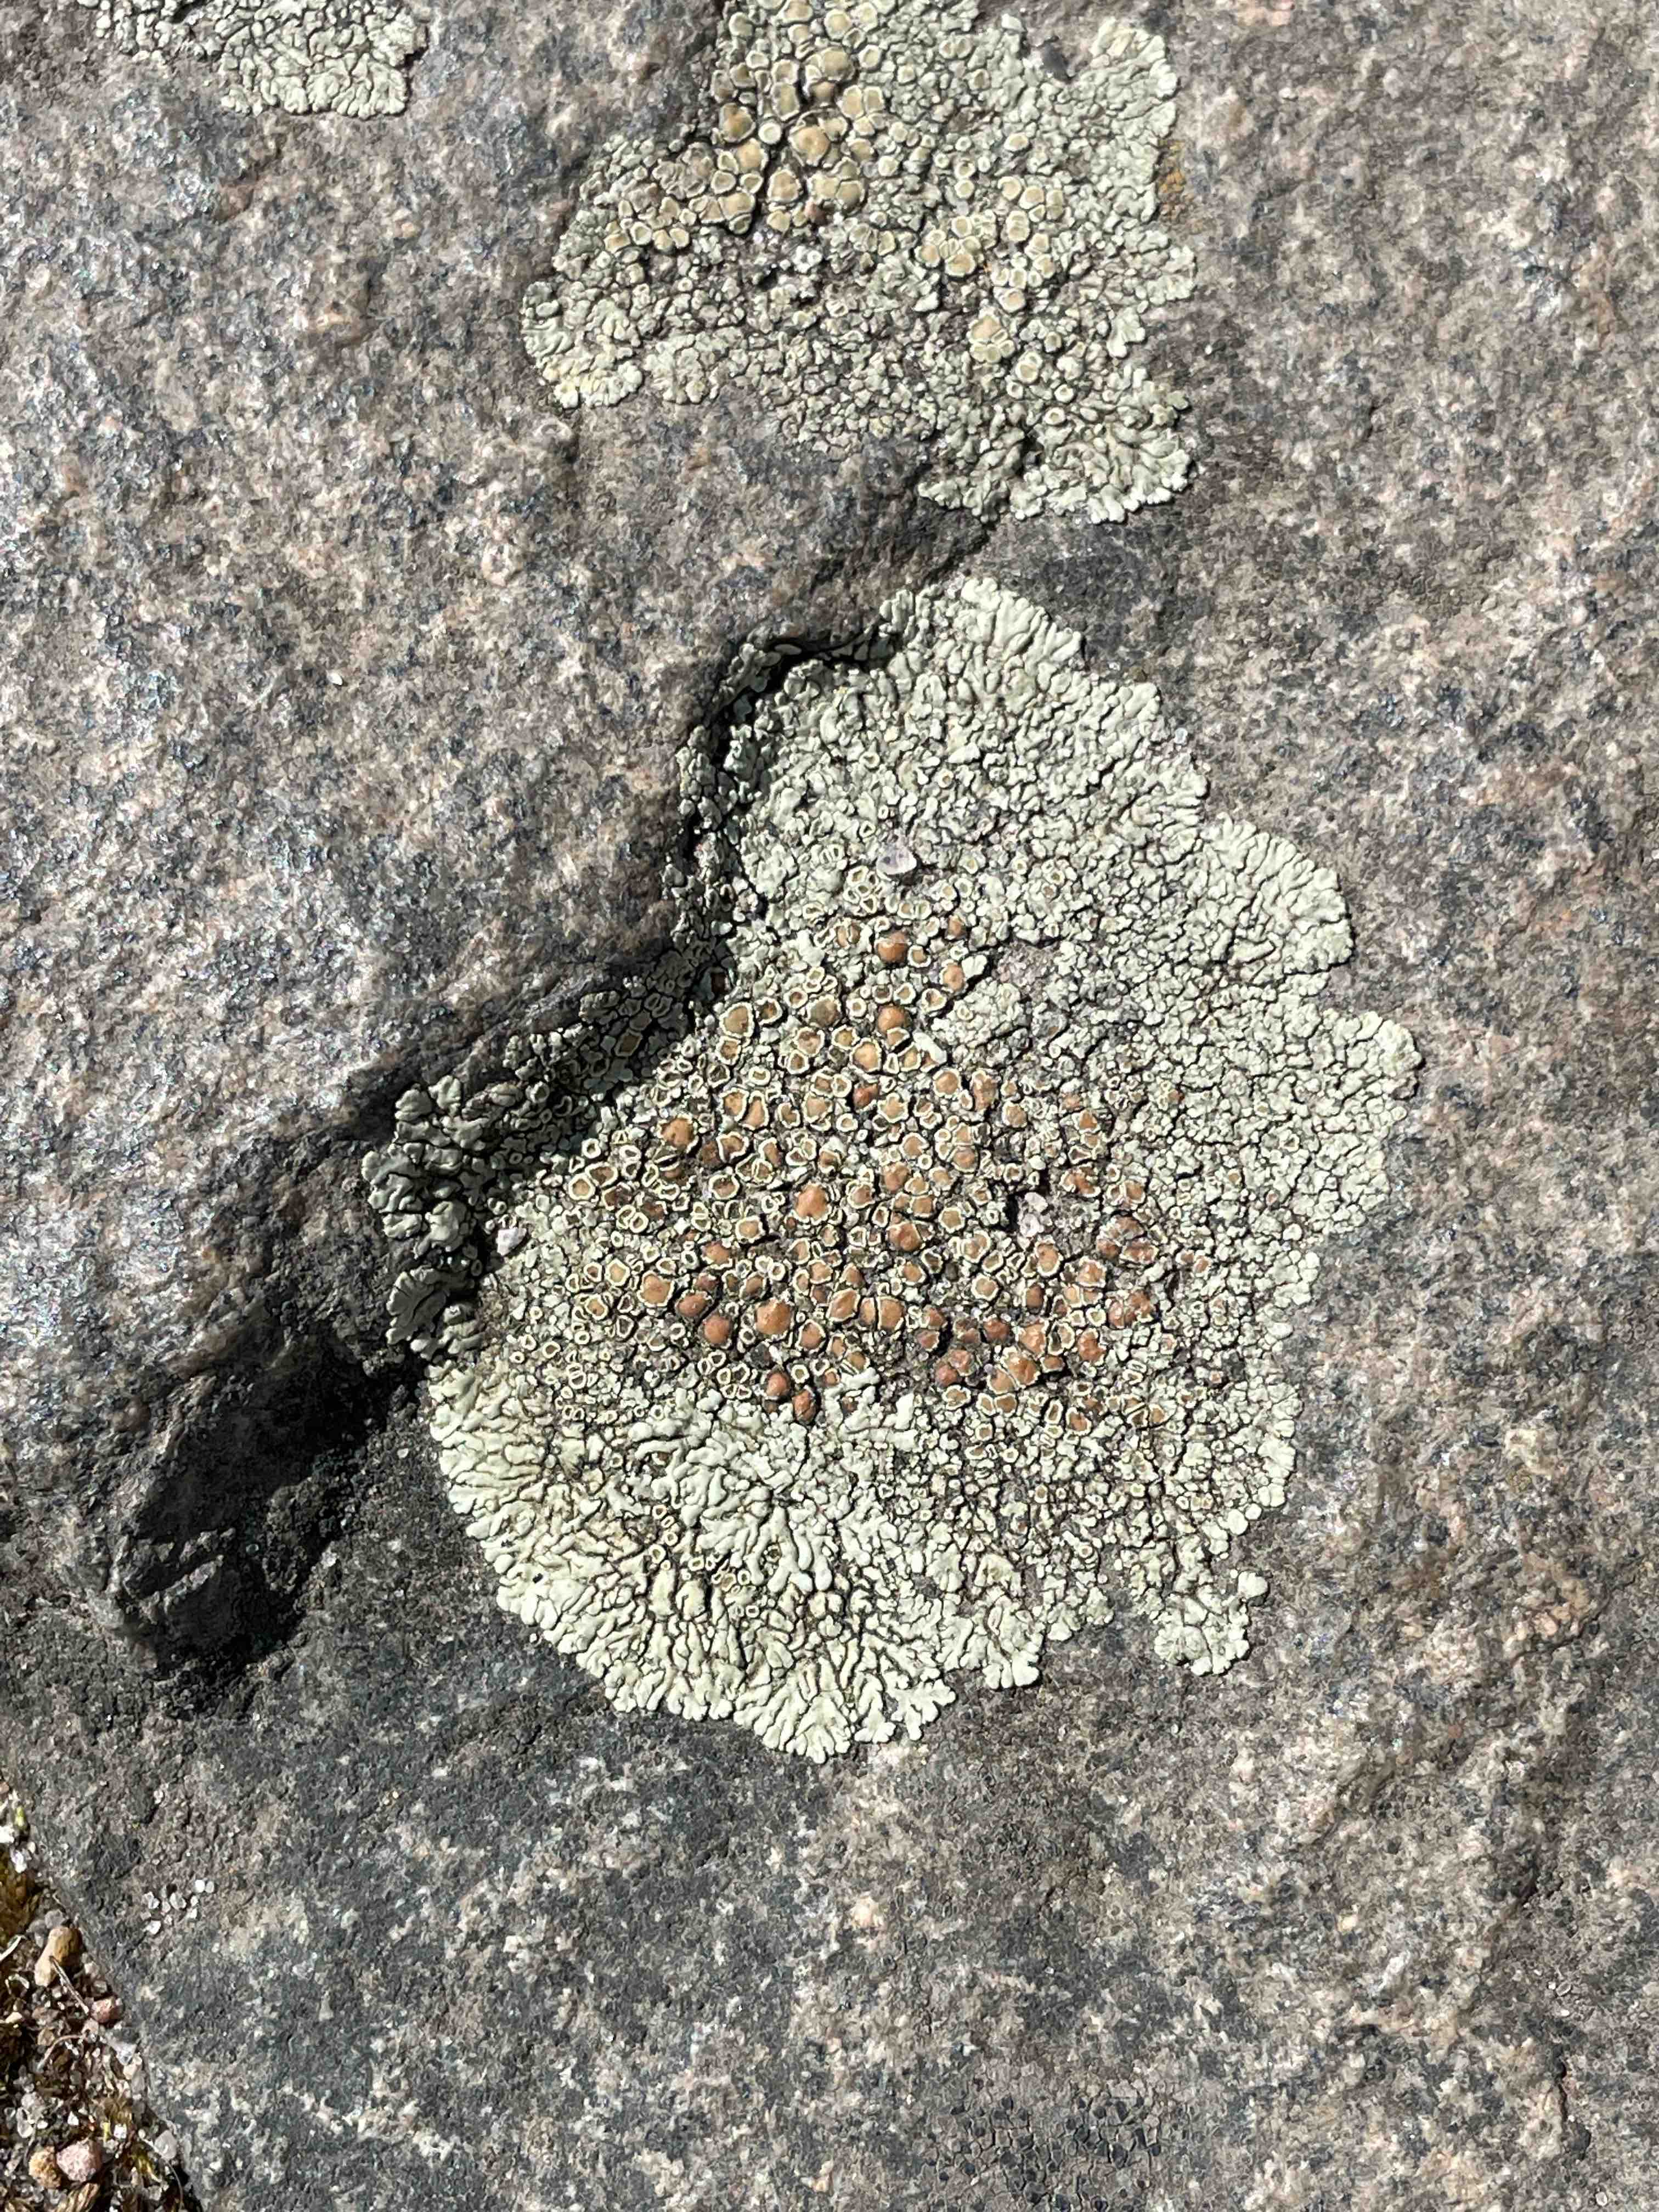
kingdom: Fungi
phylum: Ascomycota
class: Lecanoromycetes
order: Lecanorales
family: Lecanoraceae
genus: Protoparmeliopsis
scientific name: Protoparmeliopsis muralis
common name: randfliget kantskivelav
